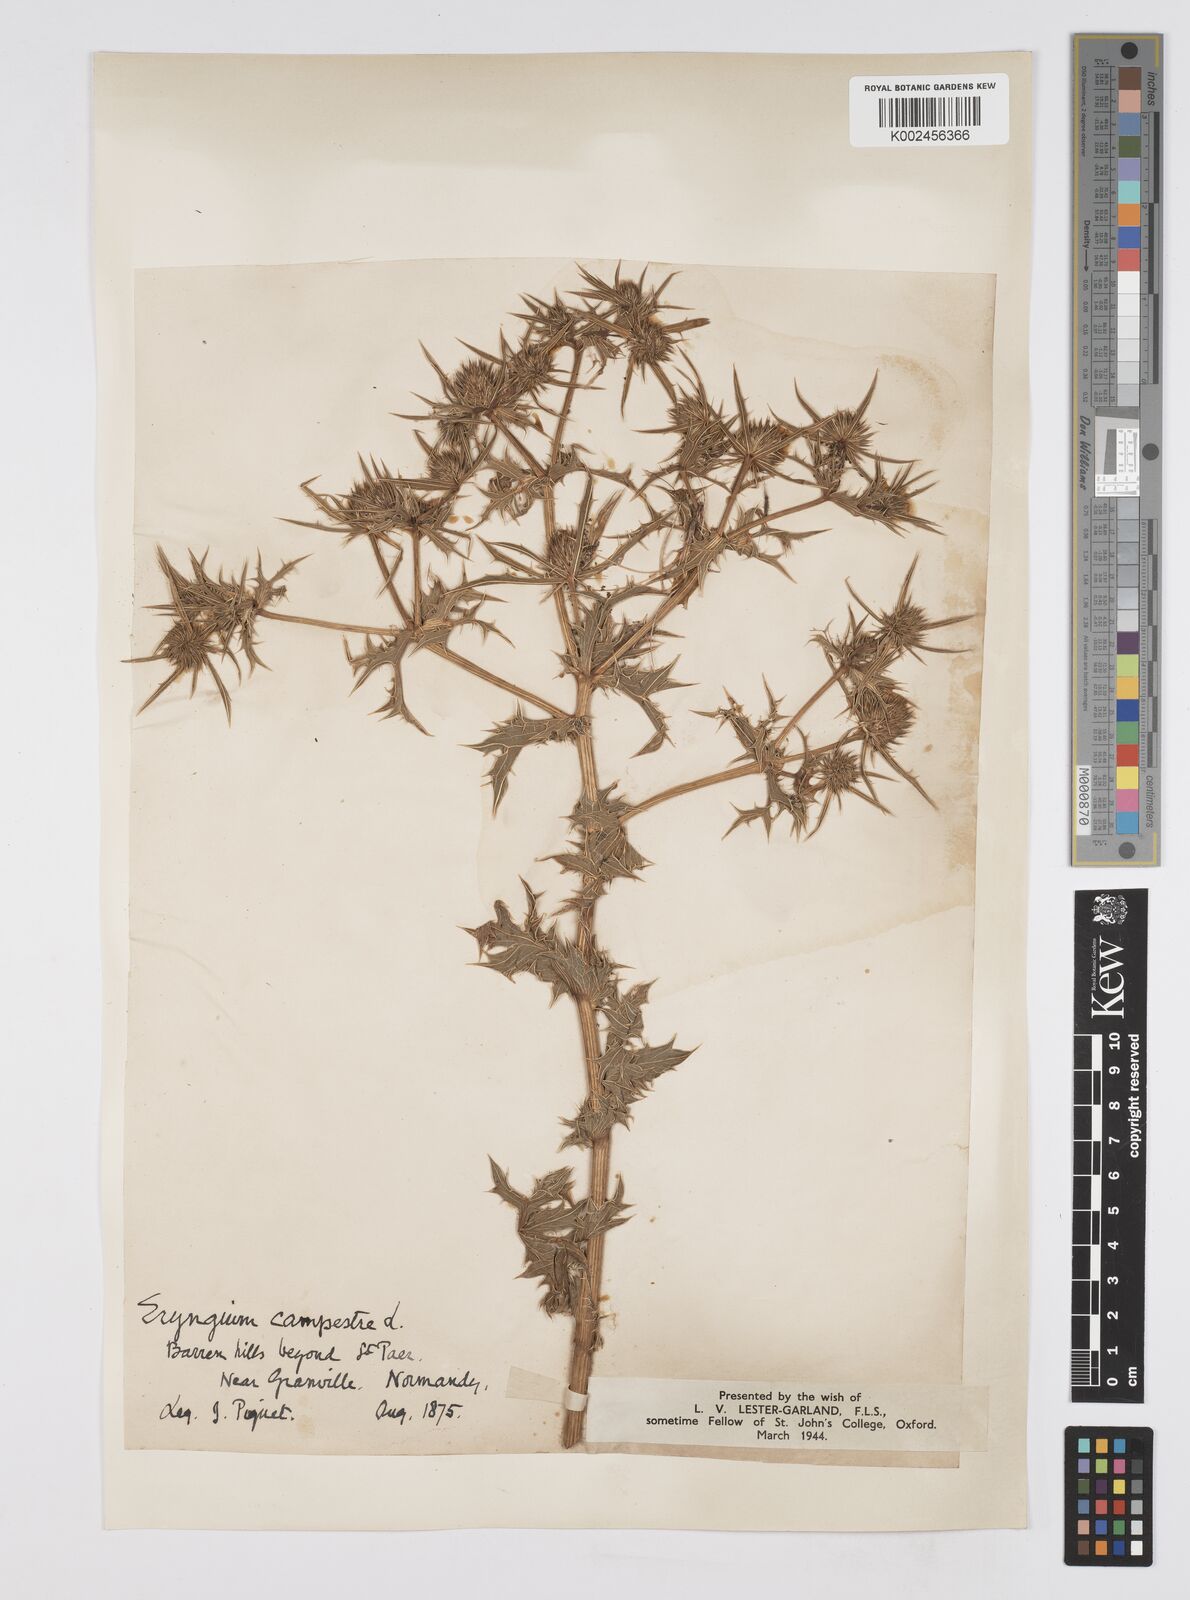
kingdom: Plantae
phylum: Tracheophyta
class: Magnoliopsida
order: Apiales
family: Apiaceae
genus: Eryngium
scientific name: Eryngium campestre
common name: Field eryngo
